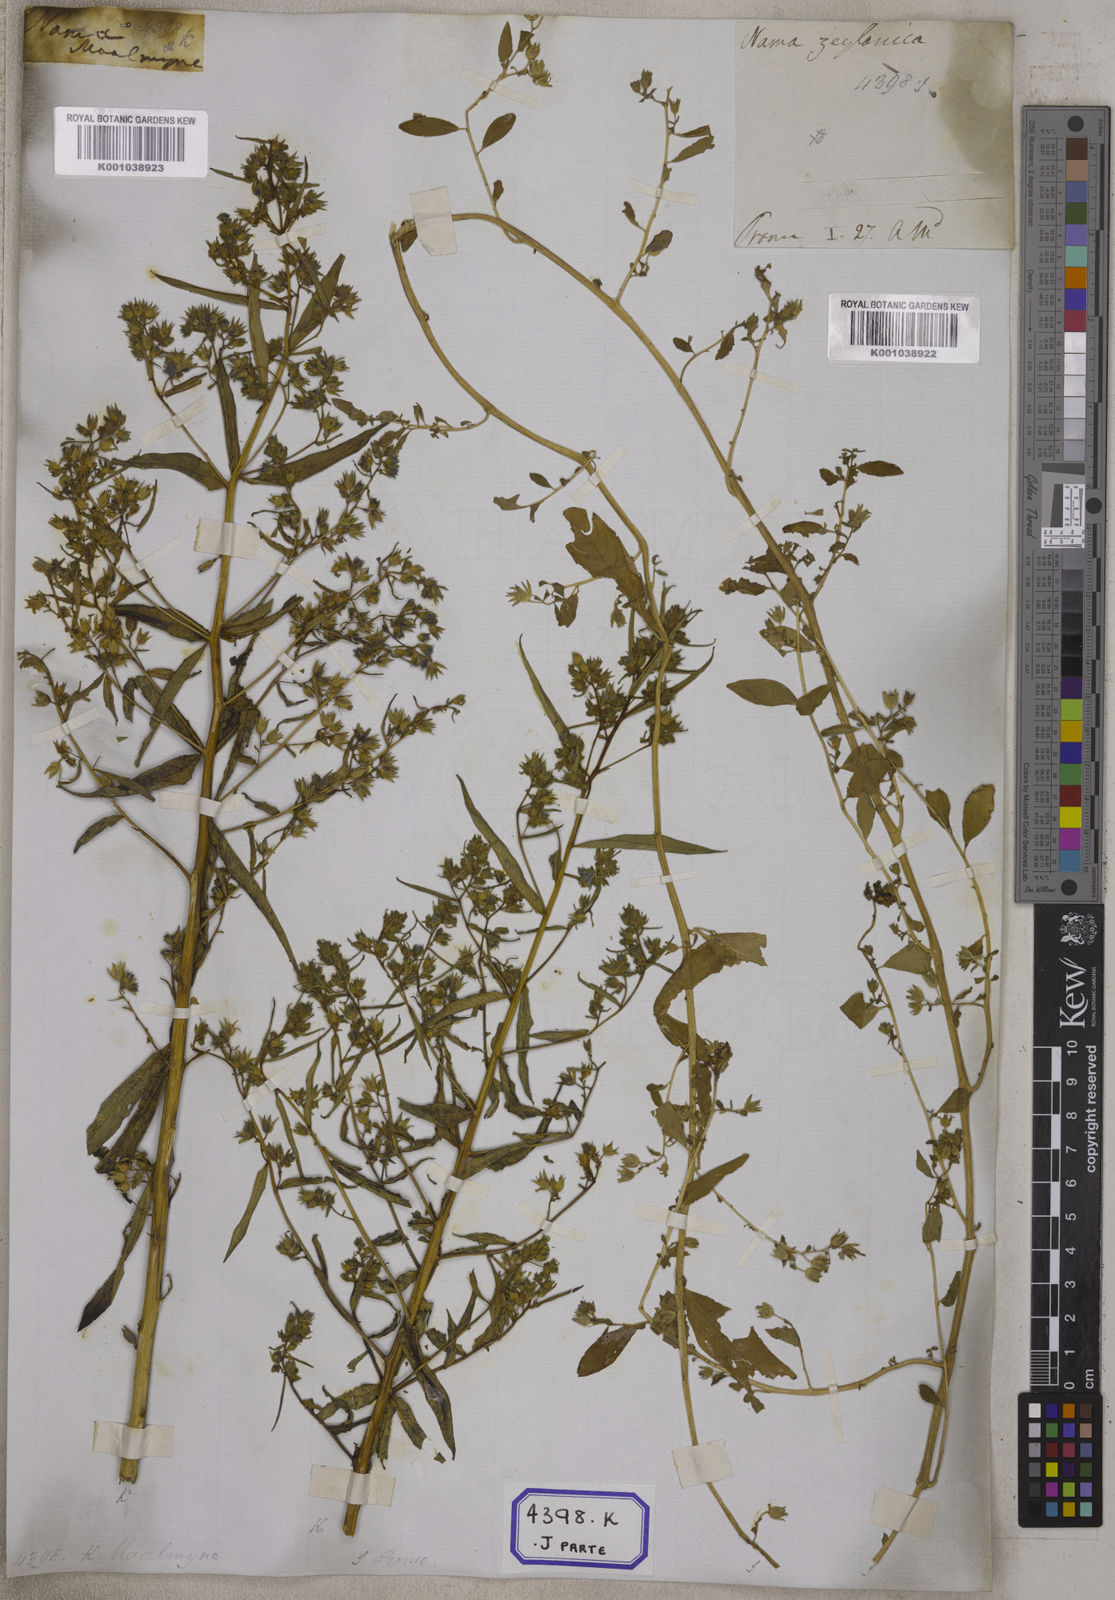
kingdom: Plantae
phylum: Tracheophyta
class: Magnoliopsida
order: Solanales
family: Hydroleaceae
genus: Hydrolea
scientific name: Hydrolea zeylanica
